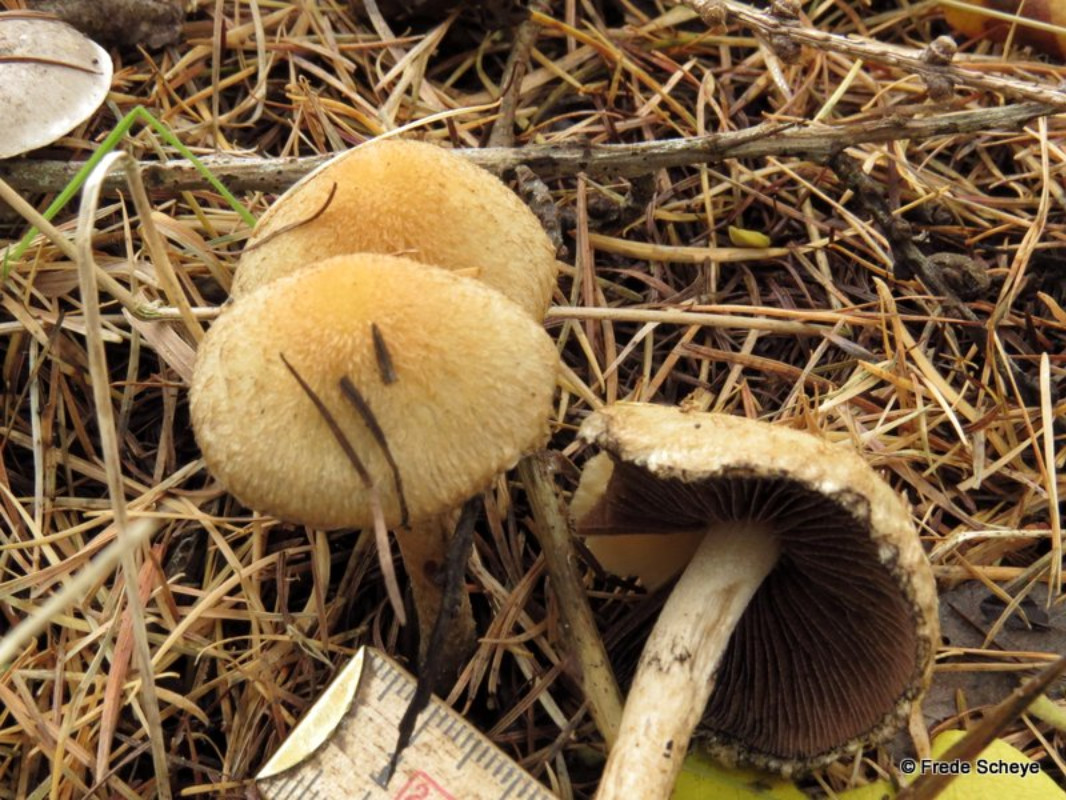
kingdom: Fungi
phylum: Basidiomycota
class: Agaricomycetes
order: Agaricales
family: Psathyrellaceae
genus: Lacrymaria
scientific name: Lacrymaria pyrotricha
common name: ildhåret mørkhat
